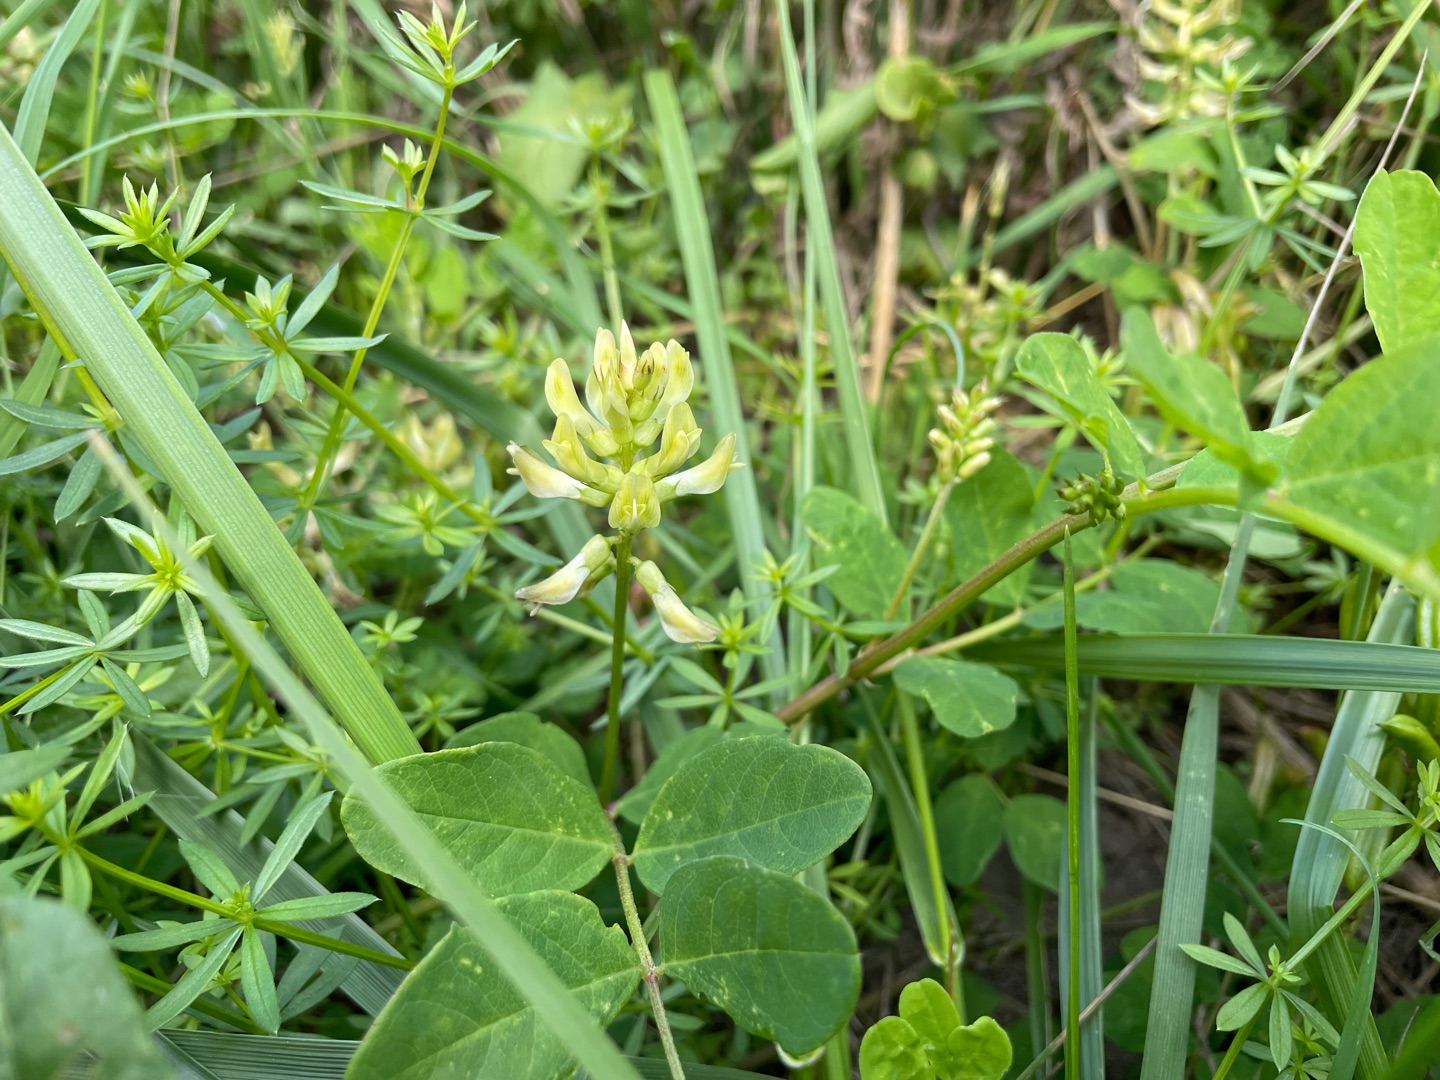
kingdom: Plantae
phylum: Tracheophyta
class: Magnoliopsida
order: Fabales
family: Fabaceae
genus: Astragalus
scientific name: Astragalus glycyphyllos
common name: Sød astragel
